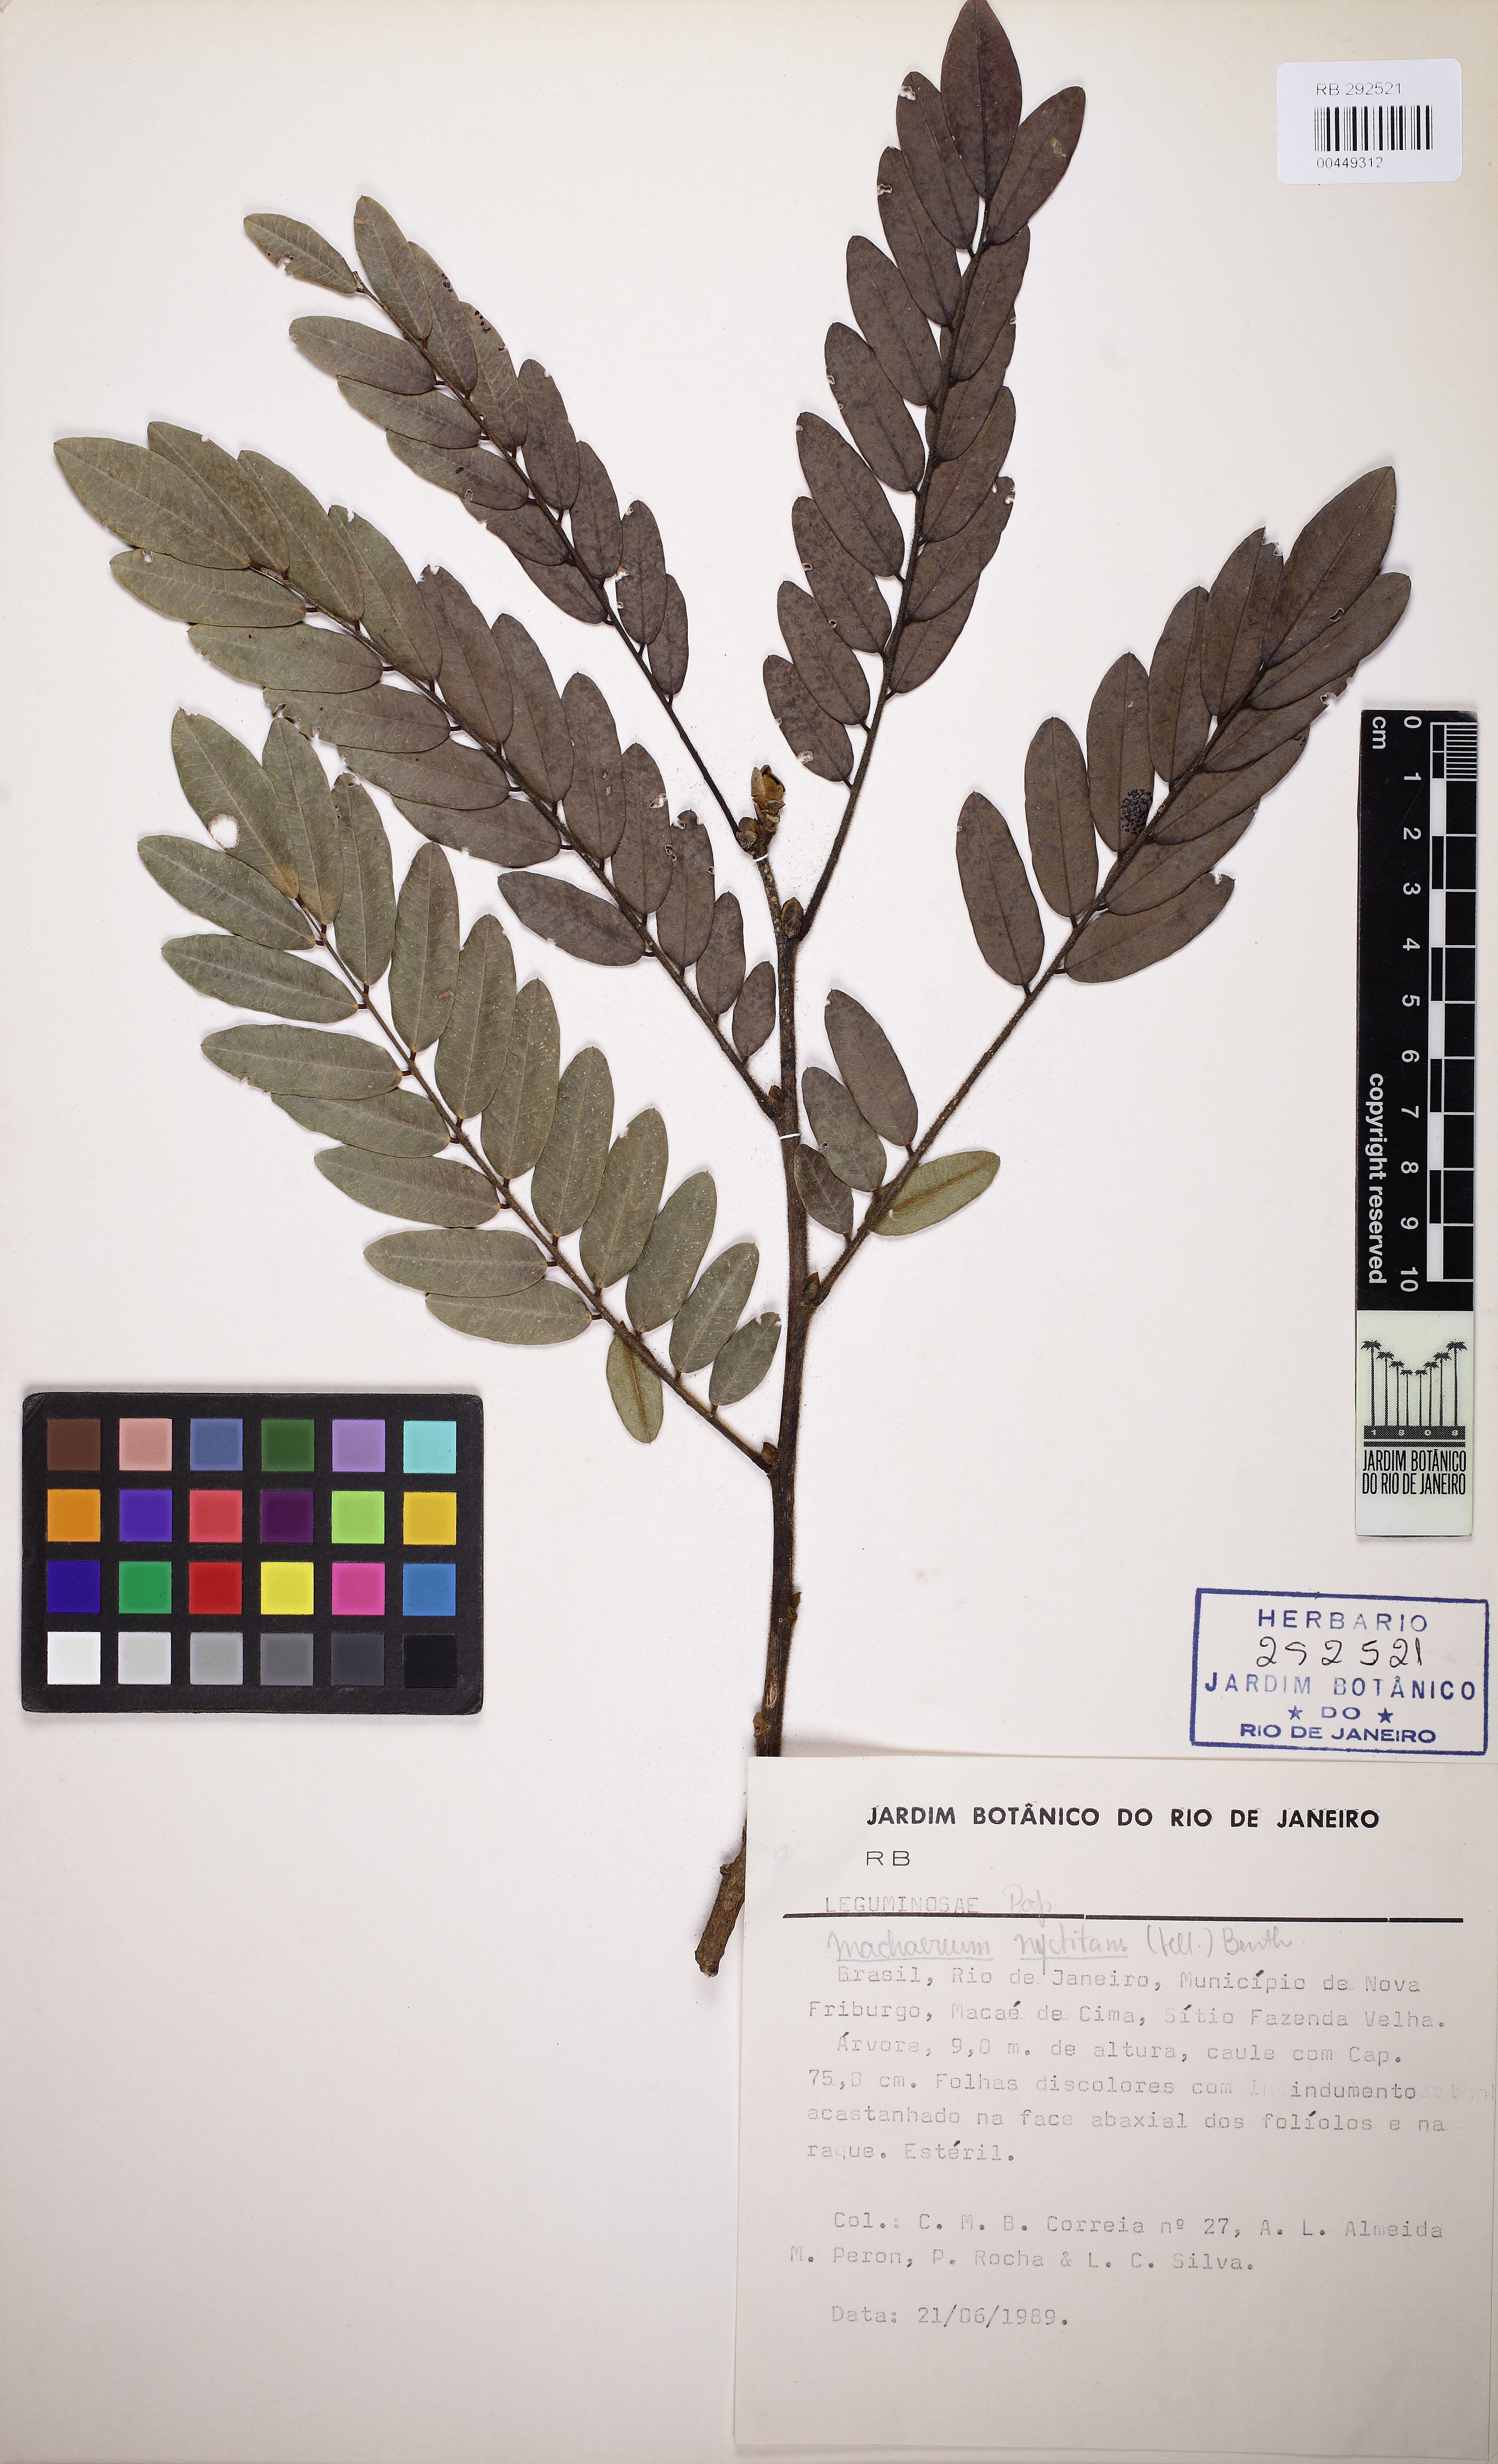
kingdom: Plantae
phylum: Tracheophyta
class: Magnoliopsida
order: Fabales
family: Fabaceae
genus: Machaerium
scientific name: Machaerium nyctitans
